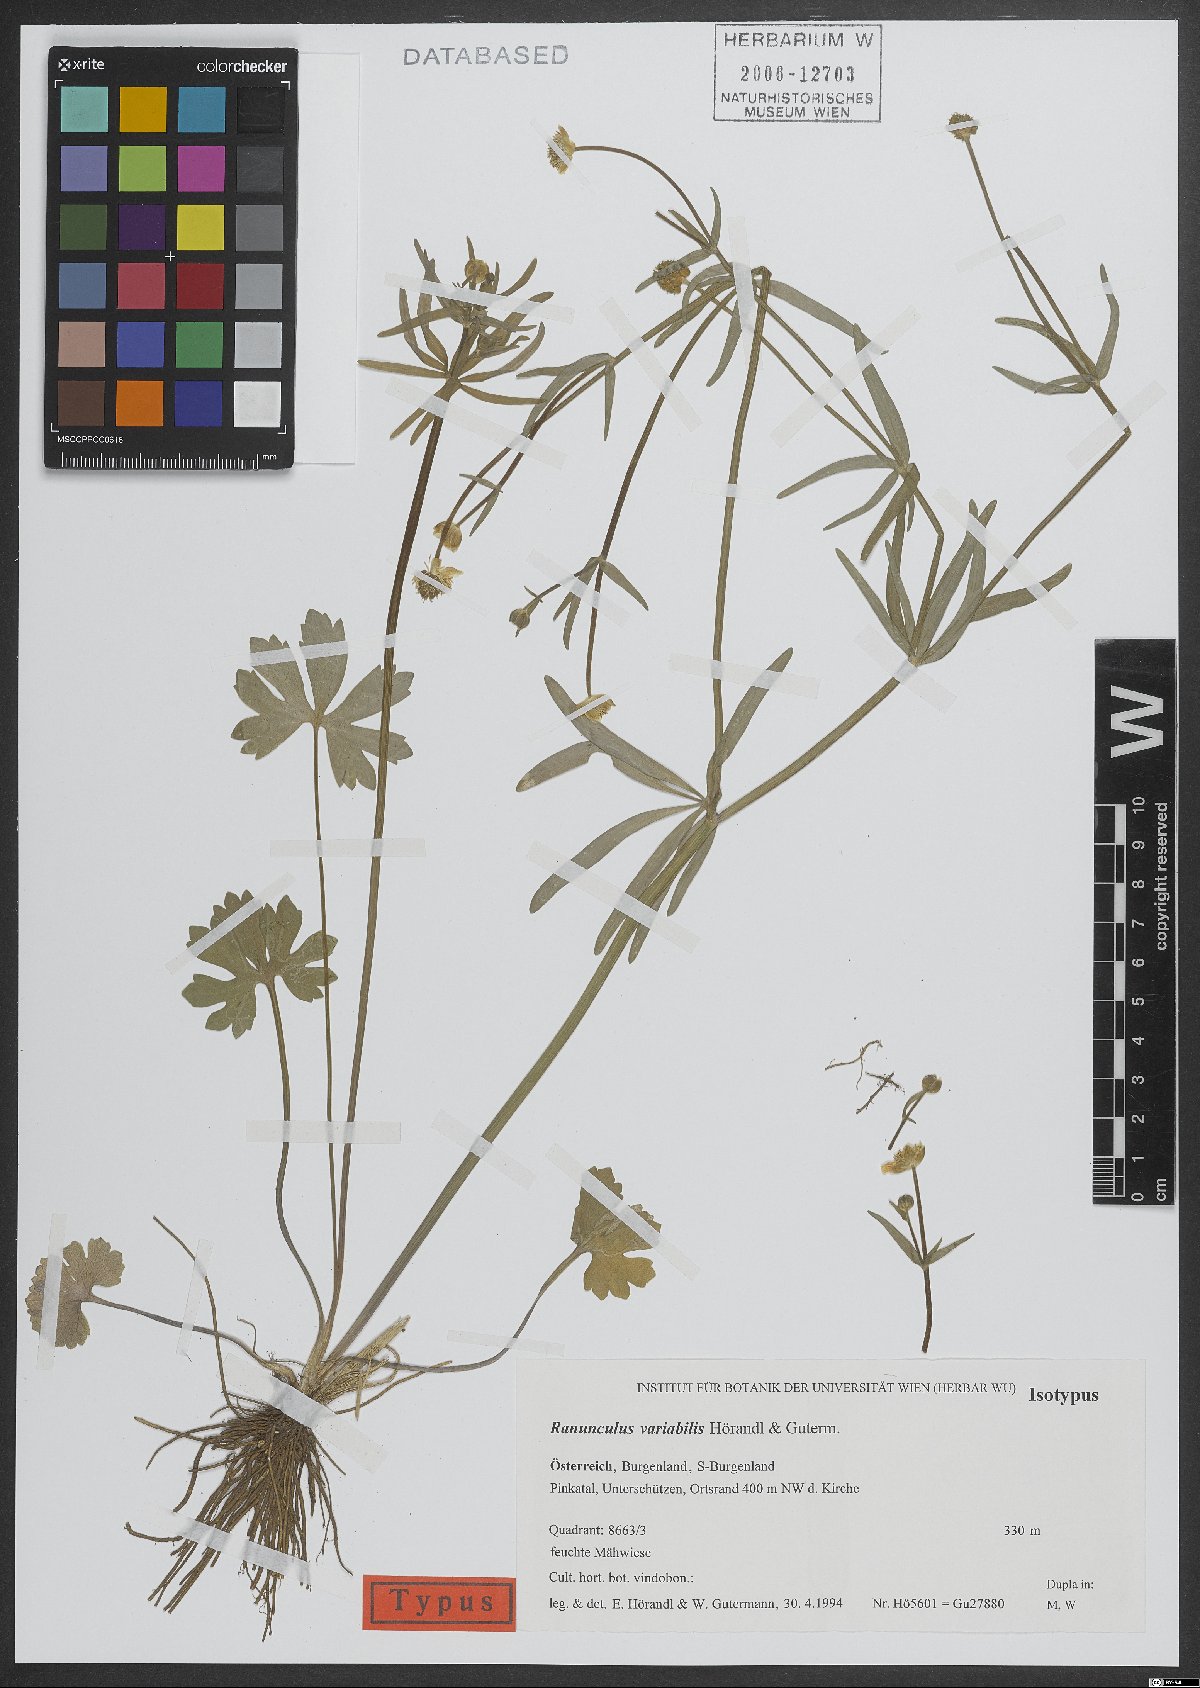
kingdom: Plantae
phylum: Tracheophyta
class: Magnoliopsida
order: Ranunculales
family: Ranunculaceae
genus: Ranunculus
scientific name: Ranunculus variabilis
